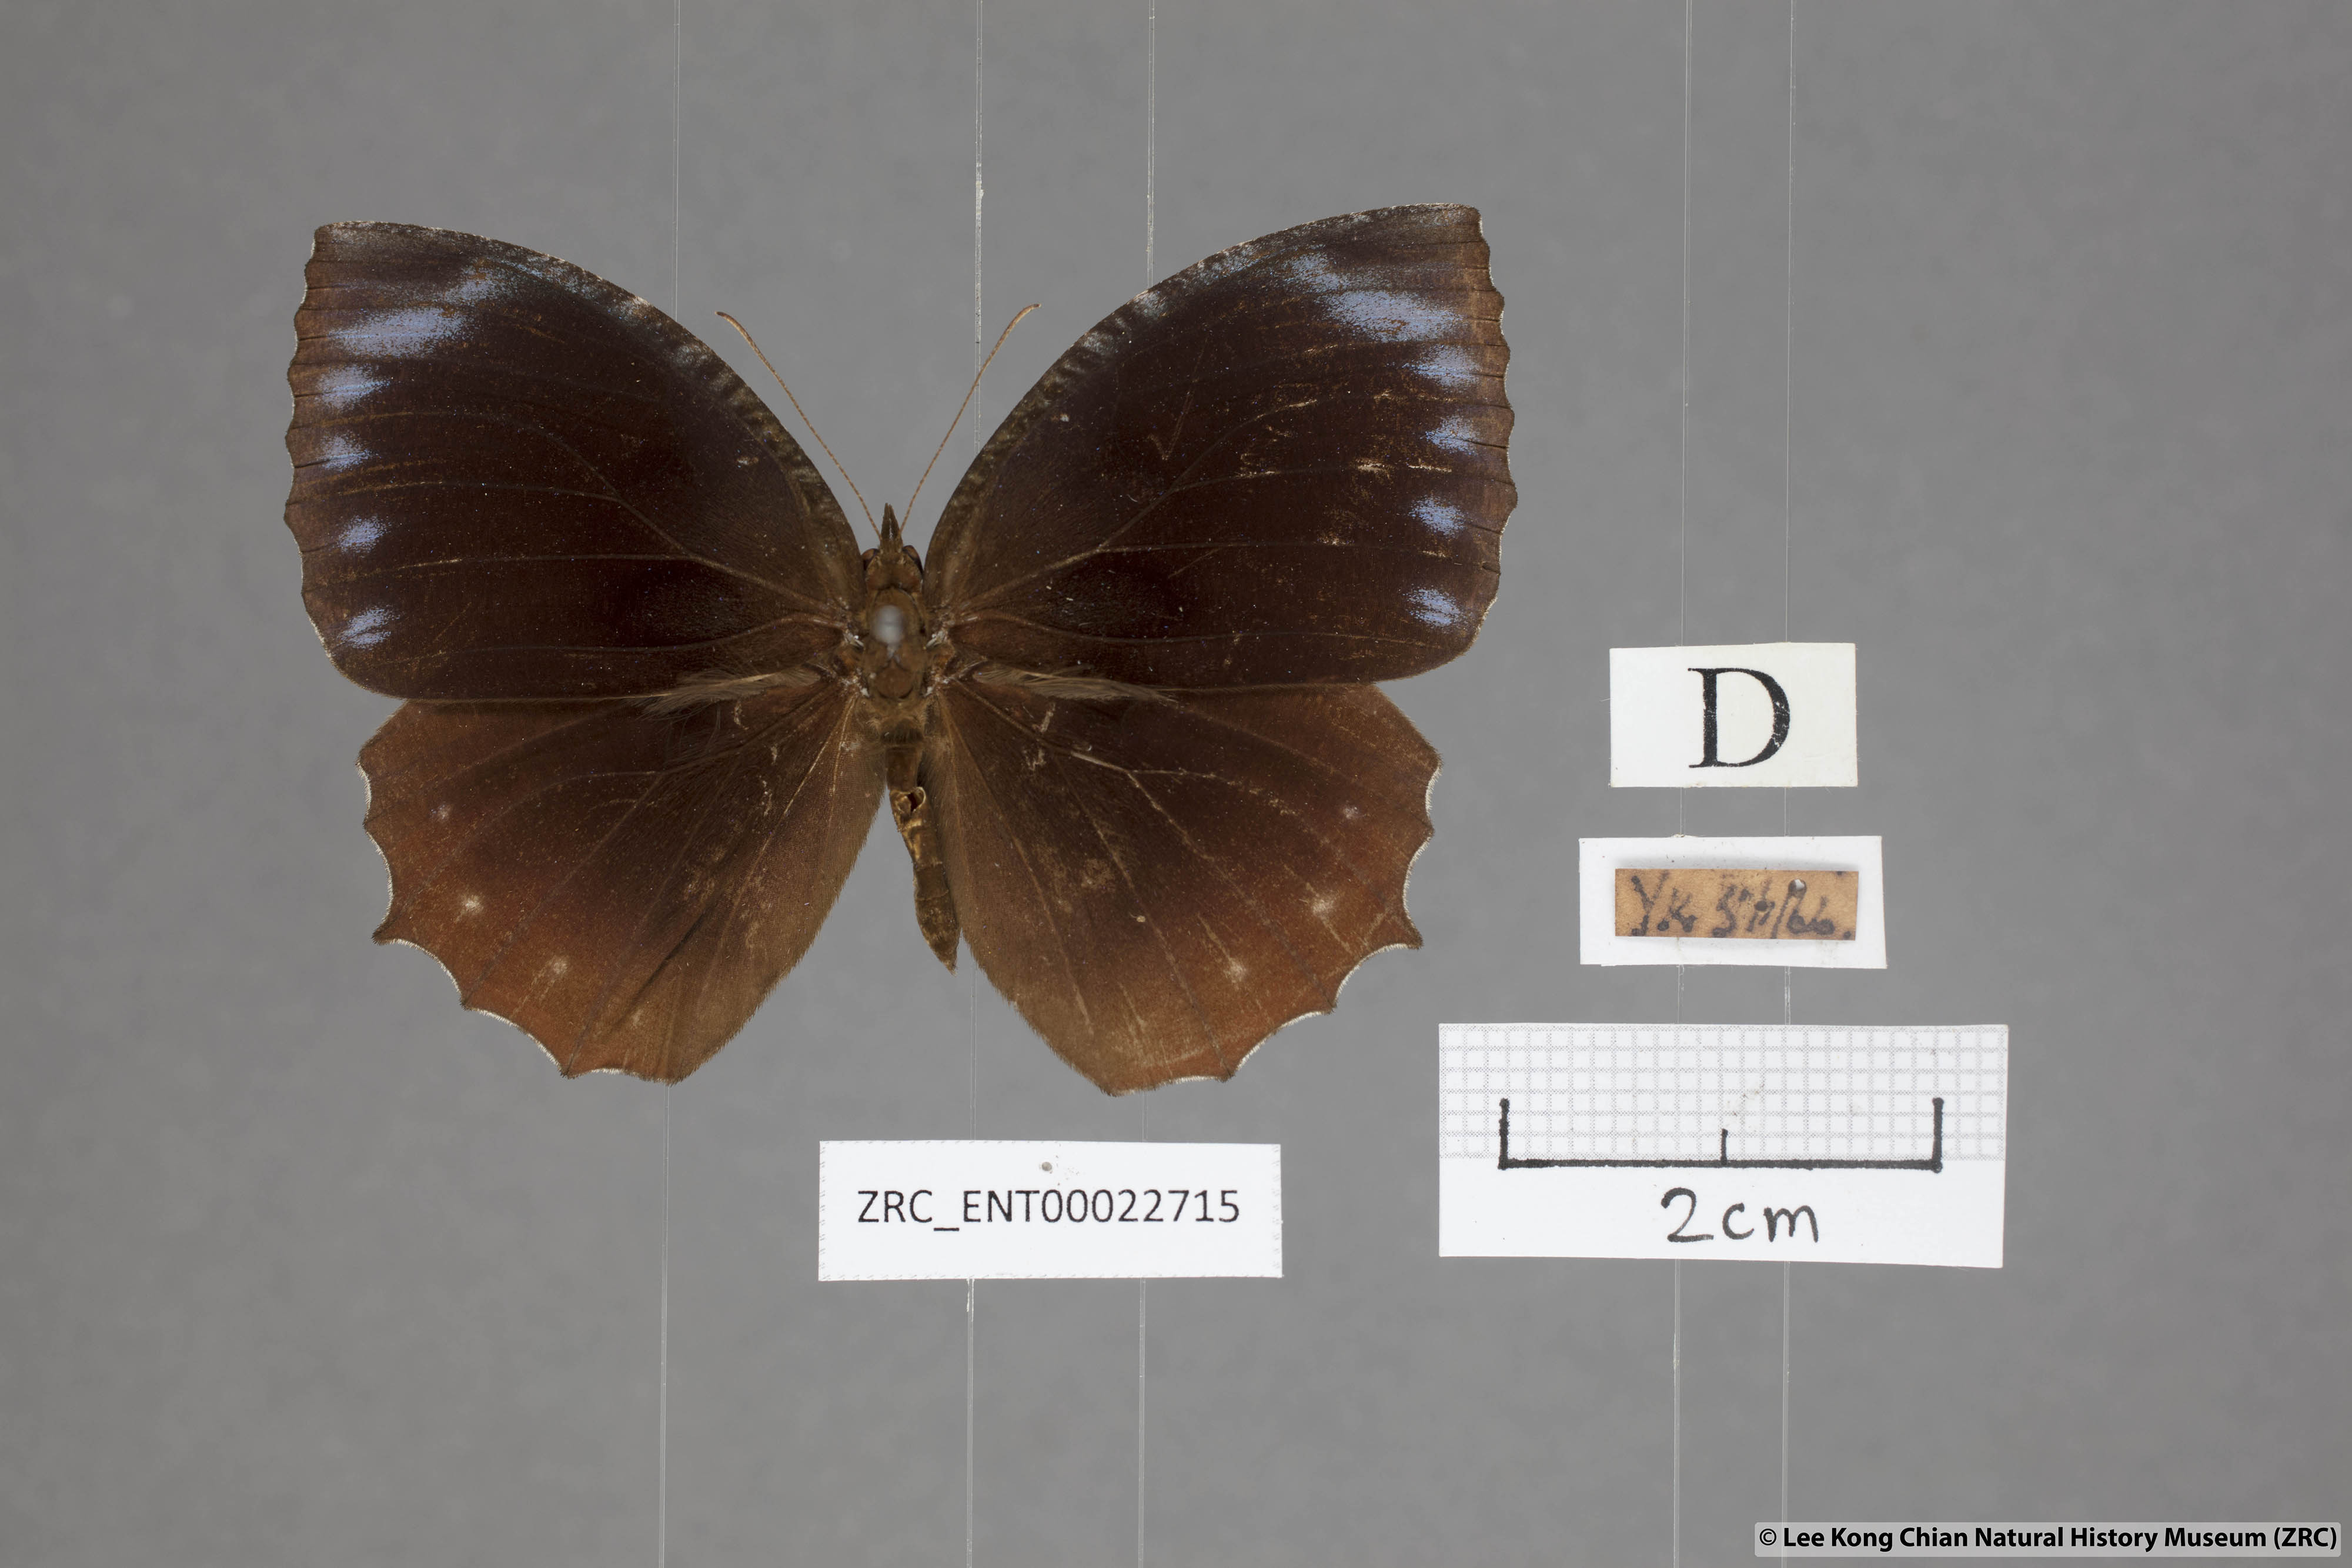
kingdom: Animalia
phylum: Arthropoda
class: Insecta
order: Lepidoptera
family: Nymphalidae
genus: Elymnias
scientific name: Elymnias hypermnestra
